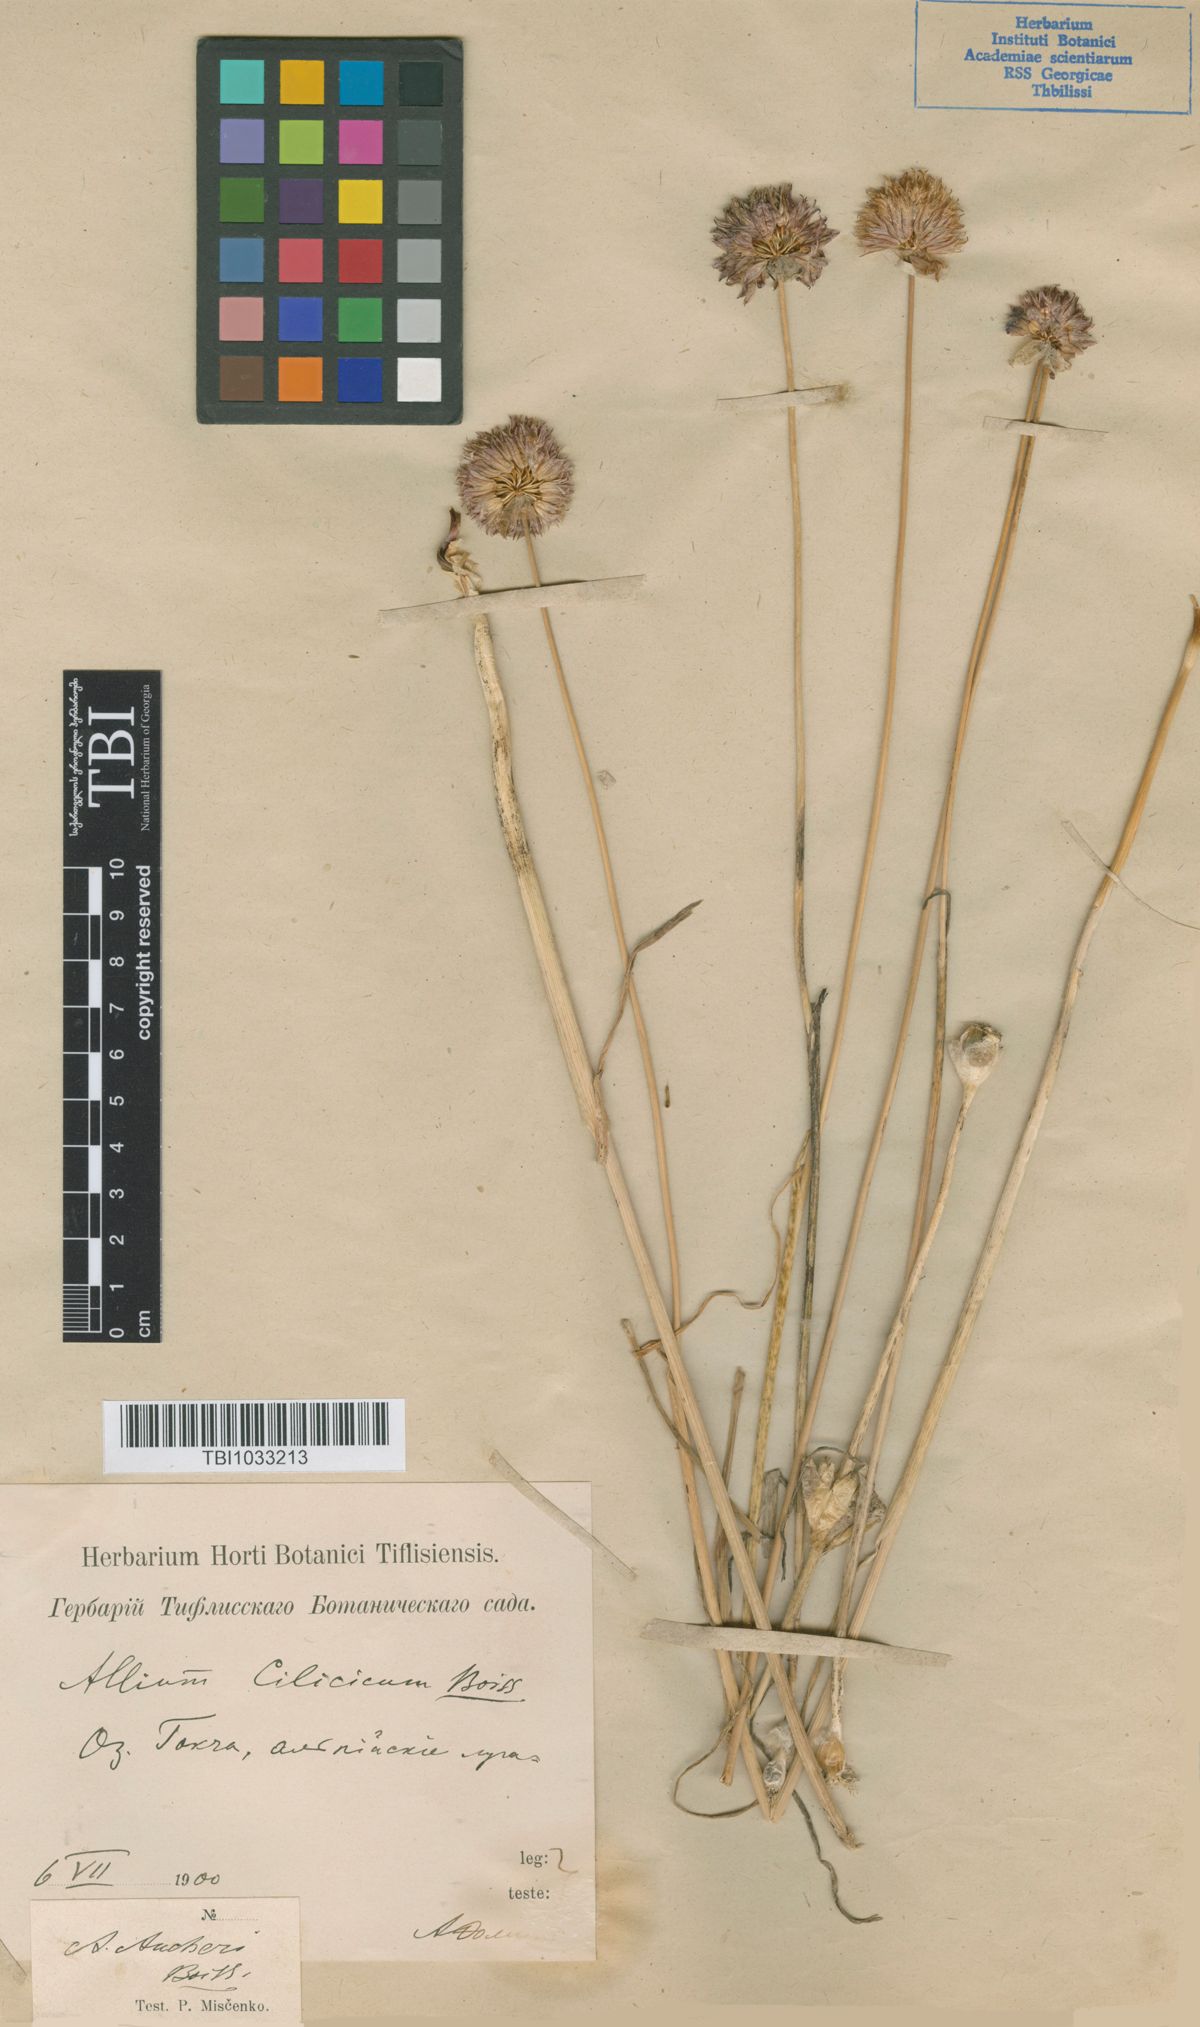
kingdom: Plantae
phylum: Tracheophyta
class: Liliopsida
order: Asparagales
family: Amaryllidaceae
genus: Allium
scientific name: Allium aucheri
